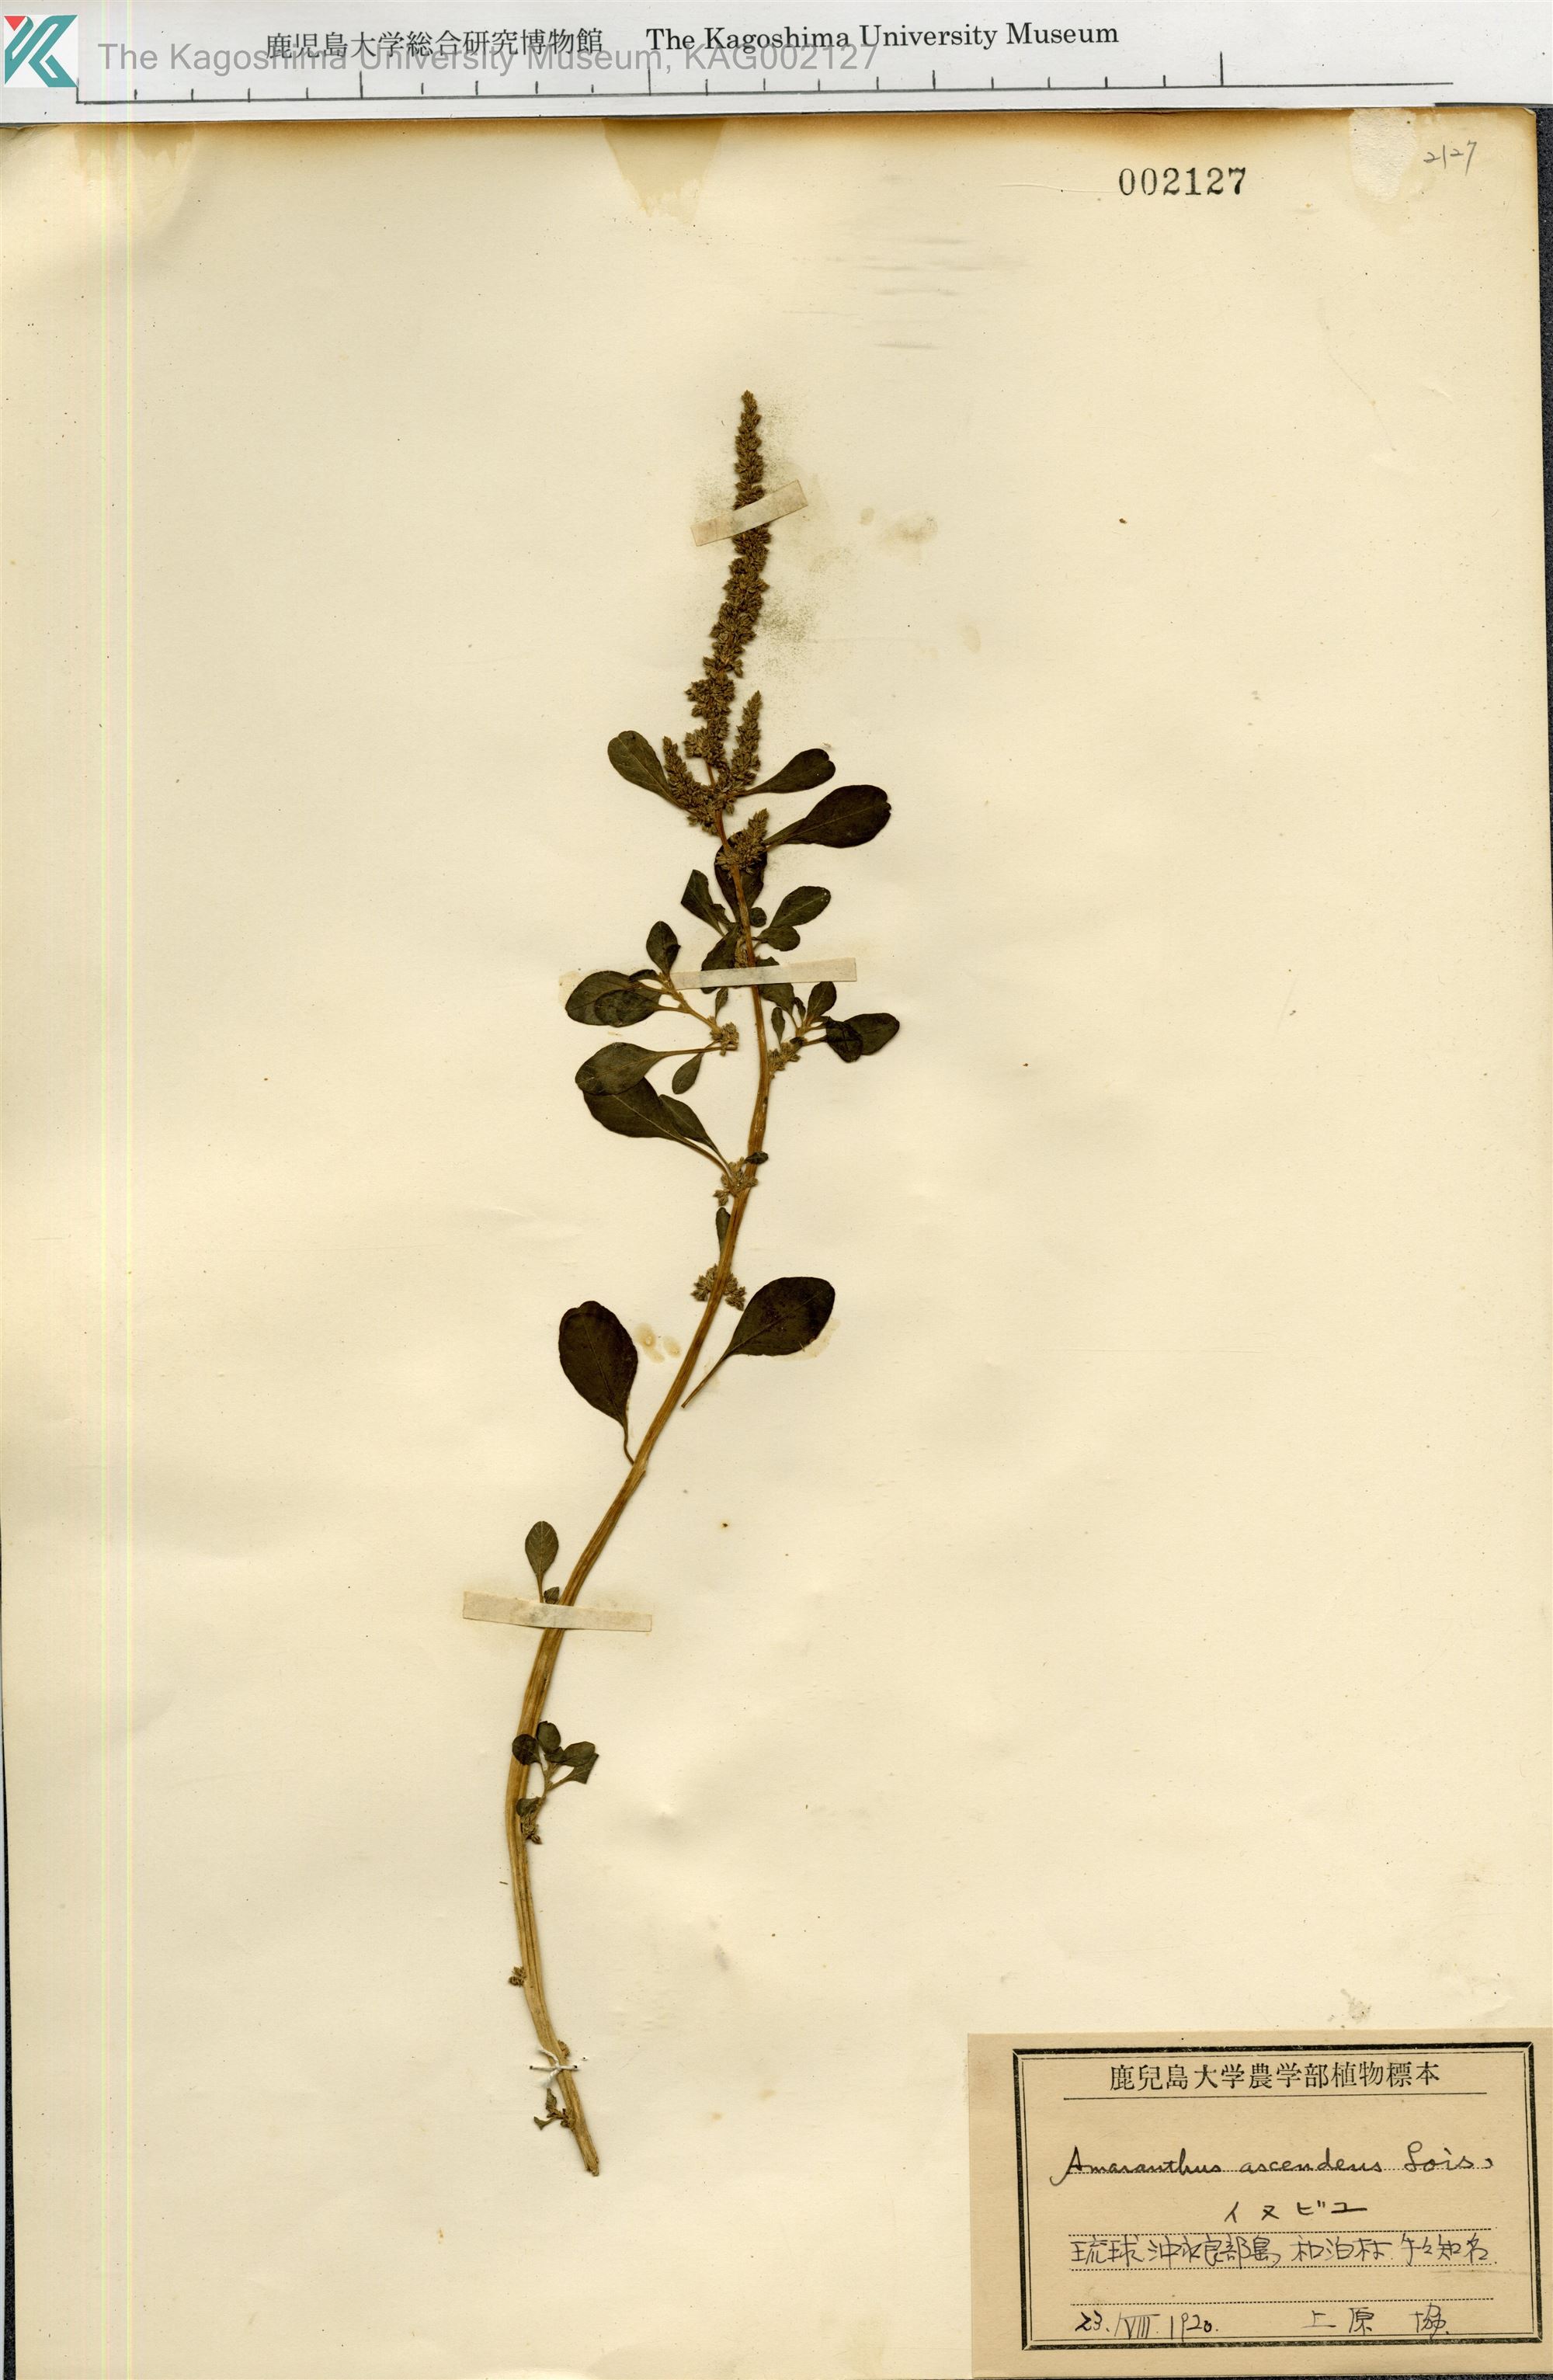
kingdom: Plantae
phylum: Tracheophyta
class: Magnoliopsida
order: Caryophyllales
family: Amaranthaceae
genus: Amaranthus
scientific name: Amaranthus blitum
